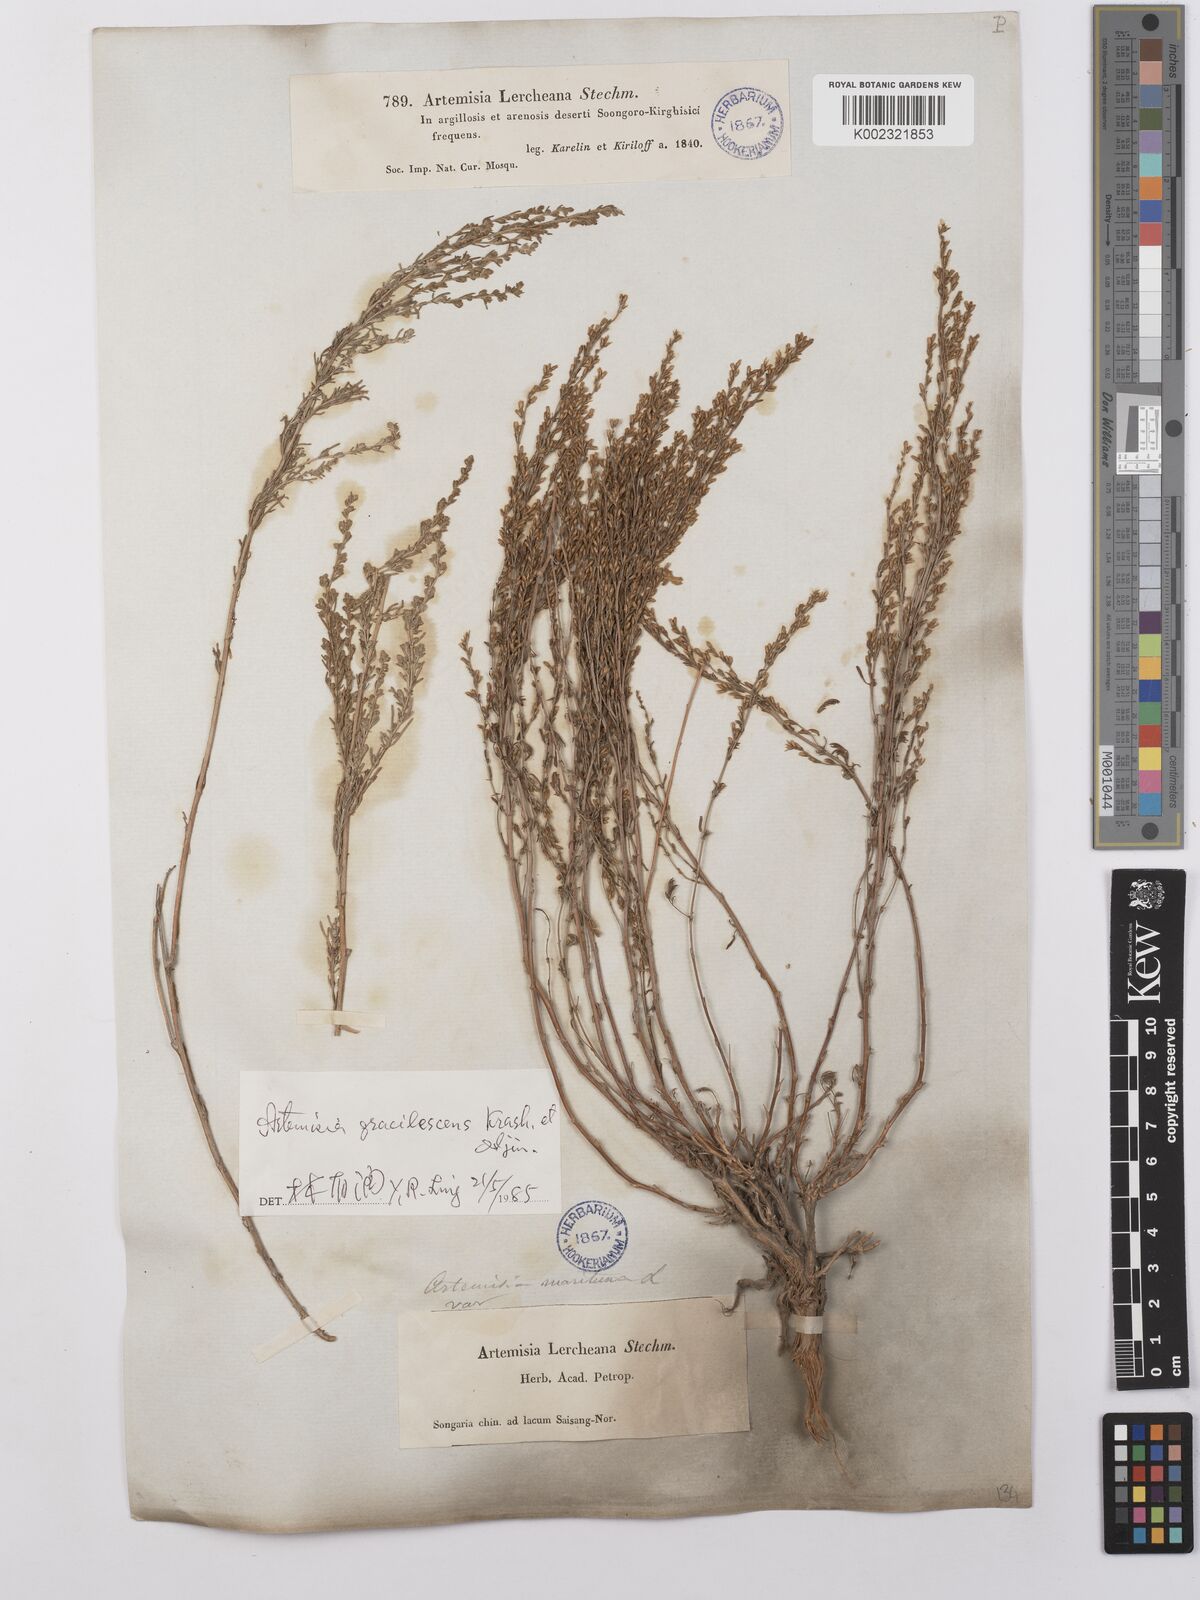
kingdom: Plantae
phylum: Tracheophyta
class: Magnoliopsida
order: Asterales
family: Asteraceae
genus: Artemisia
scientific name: Artemisia gracilescens
